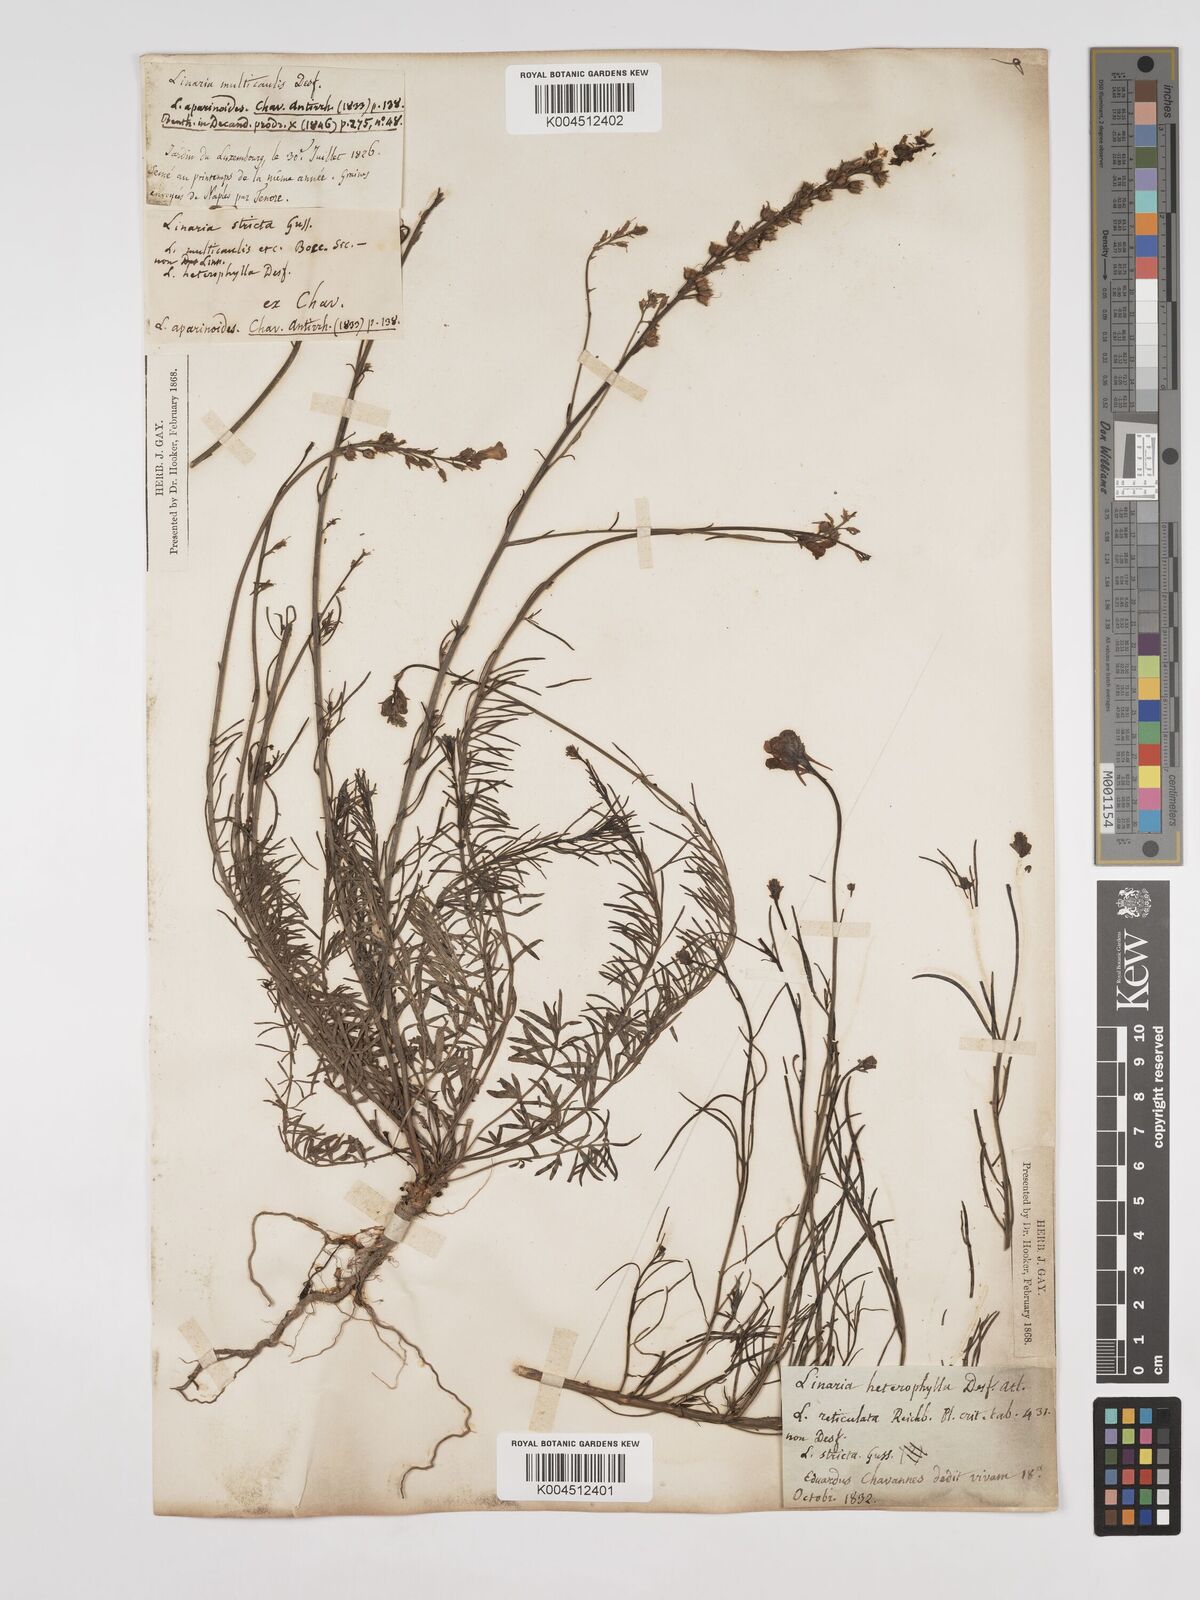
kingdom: Plantae
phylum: Tracheophyta
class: Magnoliopsida
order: Lamiales
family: Plantaginaceae
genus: Linaria
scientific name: Linaria multicaulis
